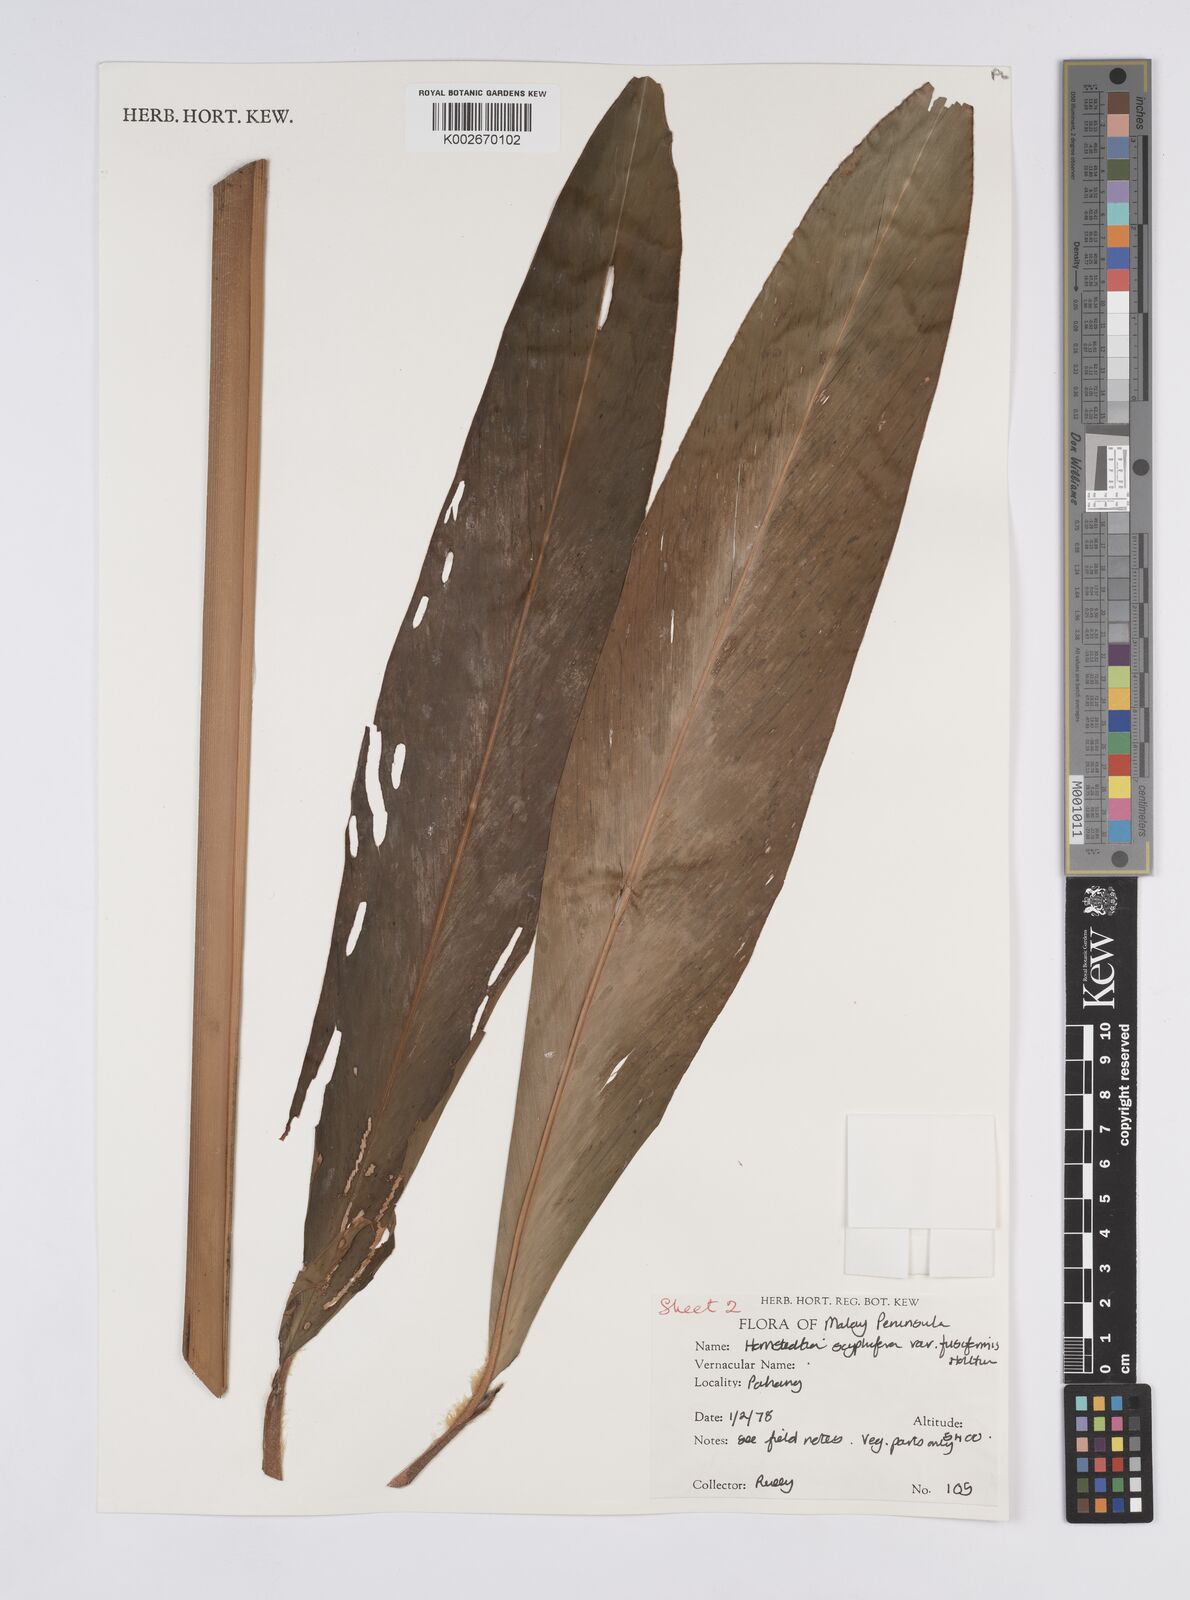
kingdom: Plantae
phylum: Tracheophyta
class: Liliopsida
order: Zingiberales
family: Zingiberaceae
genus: Hornstedtia
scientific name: Hornstedtia scyphifera
